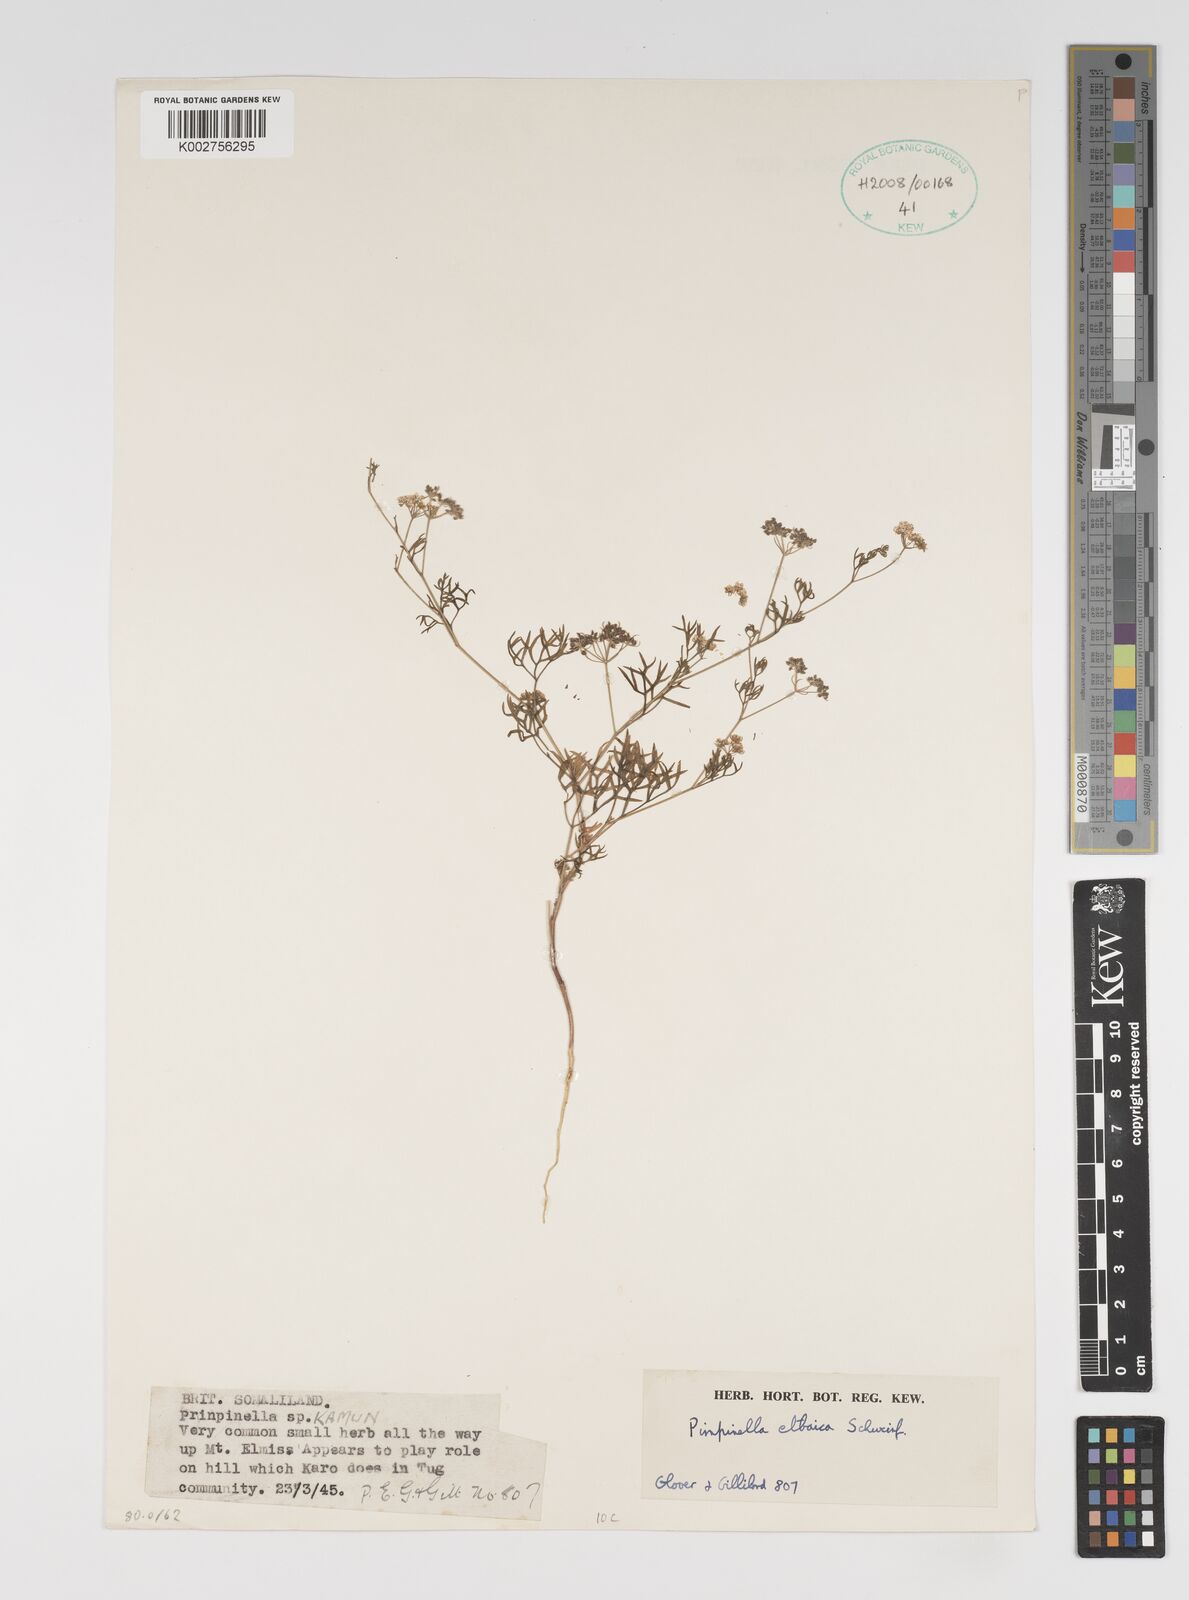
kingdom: Plantae
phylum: Tracheophyta
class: Magnoliopsida
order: Apiales
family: Apiaceae
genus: Pimpinella
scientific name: Pimpinella etbaica
